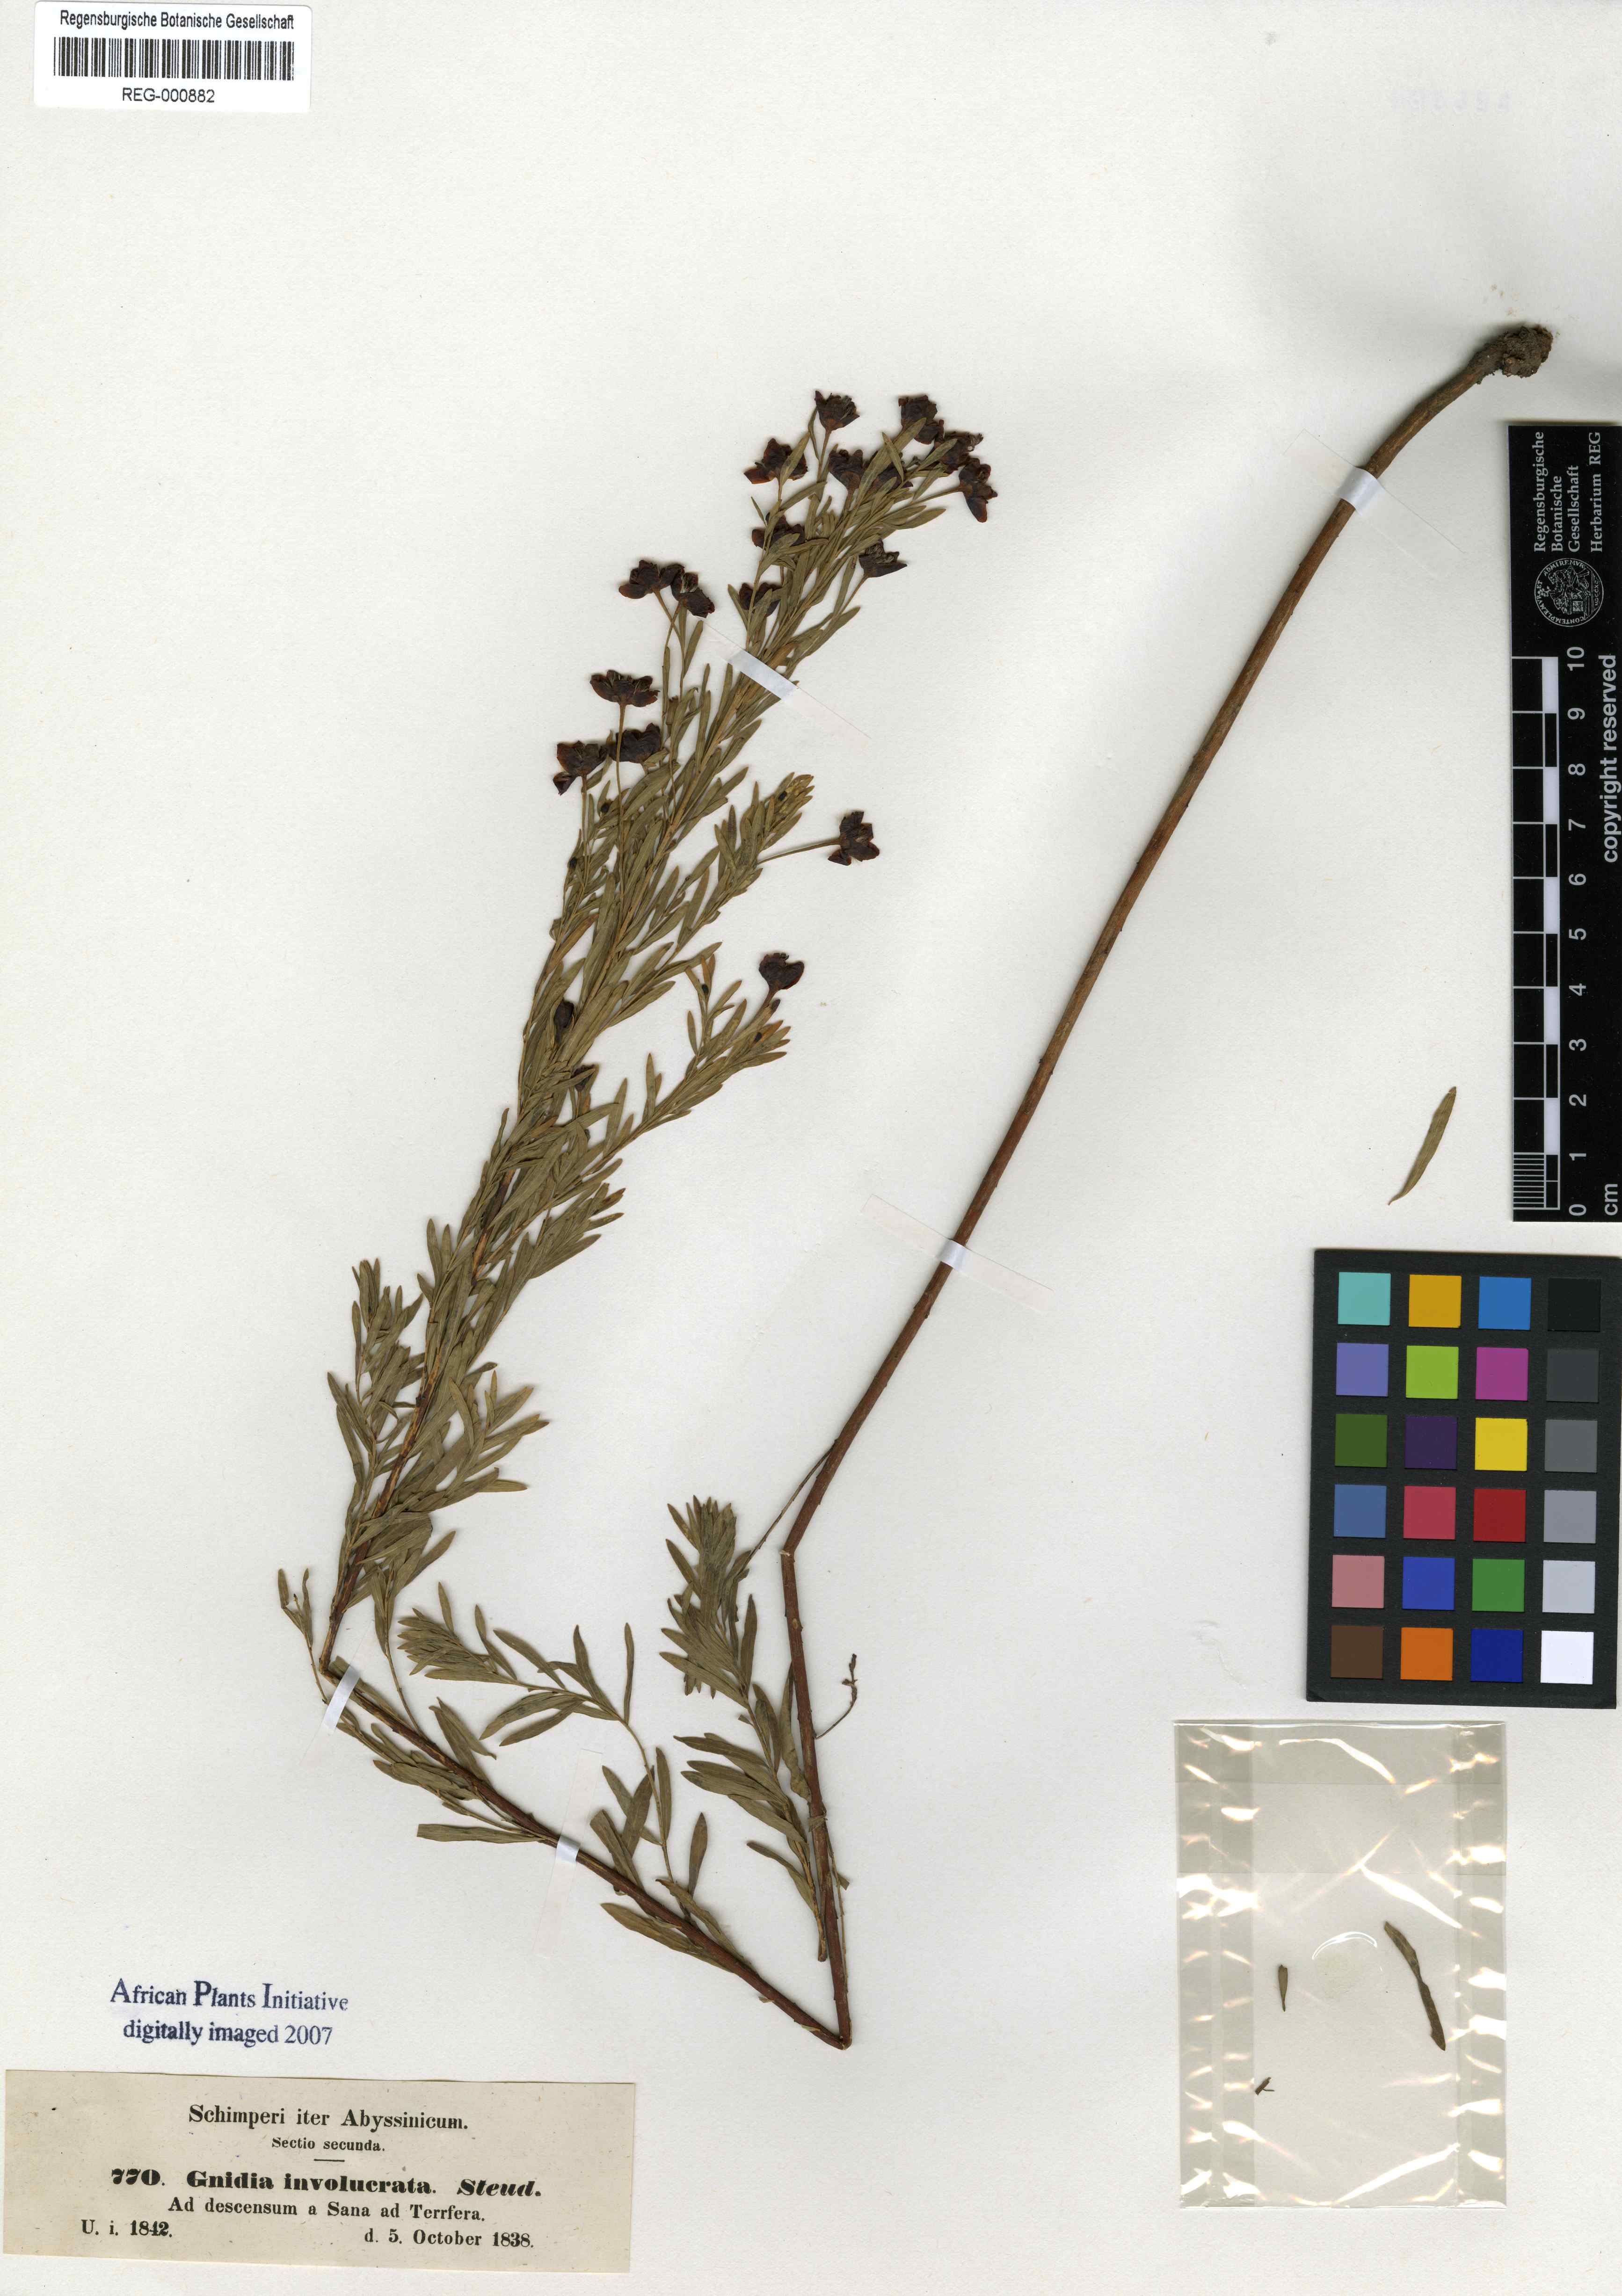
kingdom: Plantae
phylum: Tracheophyta
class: Magnoliopsida
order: Malvales
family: Thymelaeaceae
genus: Gnidia
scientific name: Gnidia involucrata
